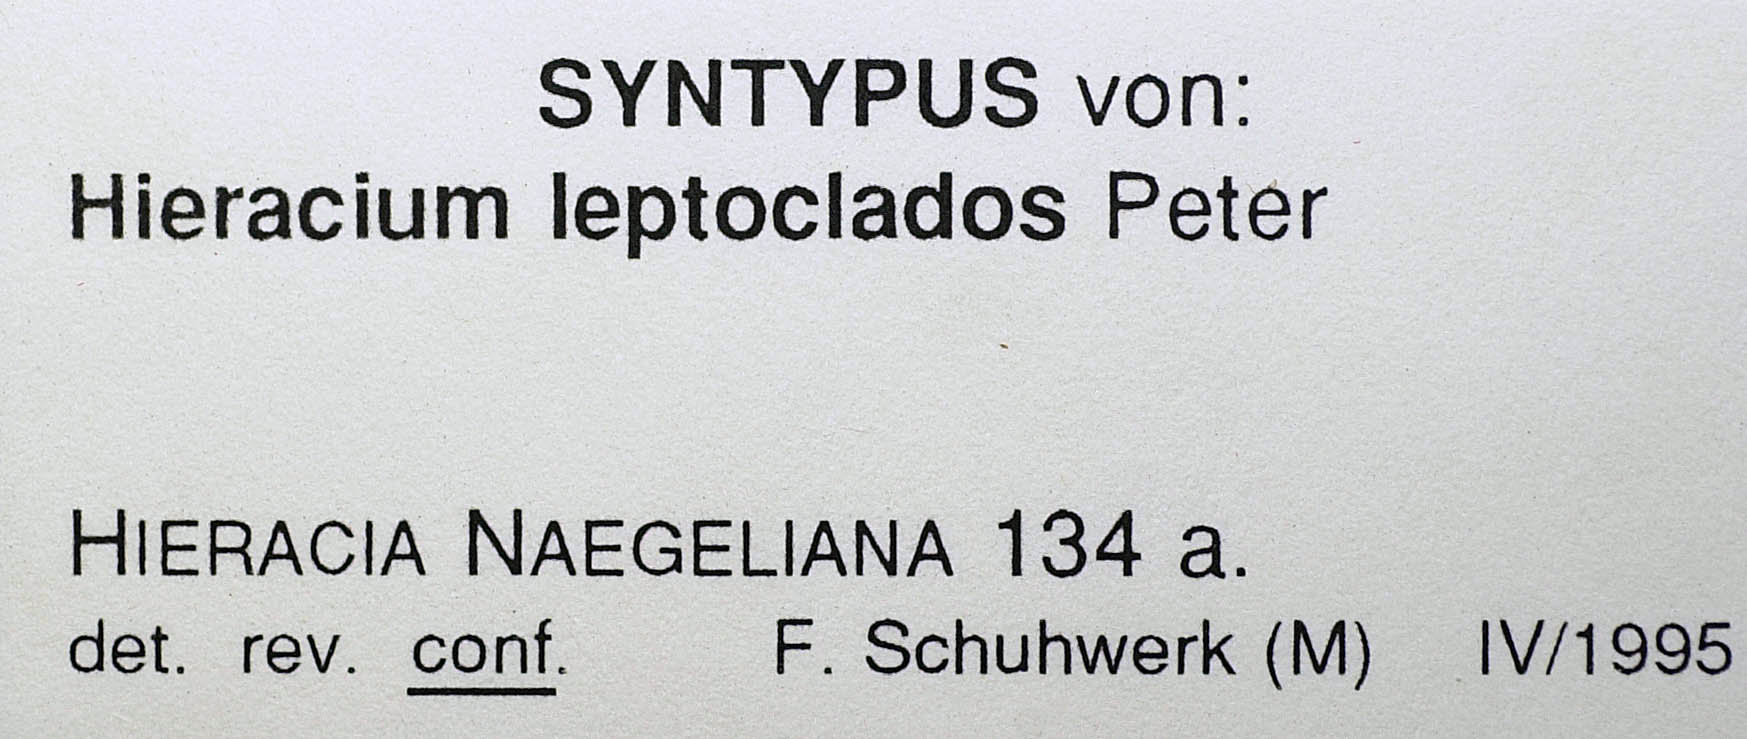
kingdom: Plantae
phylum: Tracheophyta
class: Magnoliopsida
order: Asterales
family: Asteraceae
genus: Pilosella
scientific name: Pilosella leptoclados
